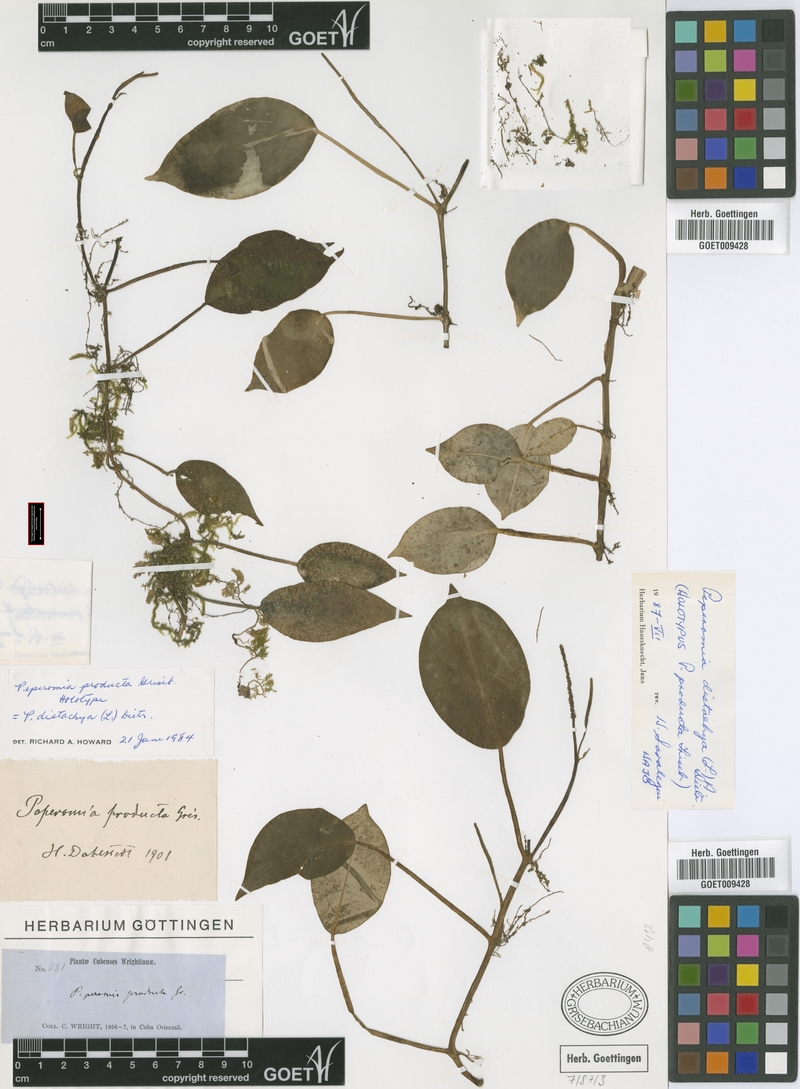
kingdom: Plantae
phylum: Tracheophyta
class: Magnoliopsida
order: Piperales
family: Piperaceae
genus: Peperomia
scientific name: Peperomia distachyos
